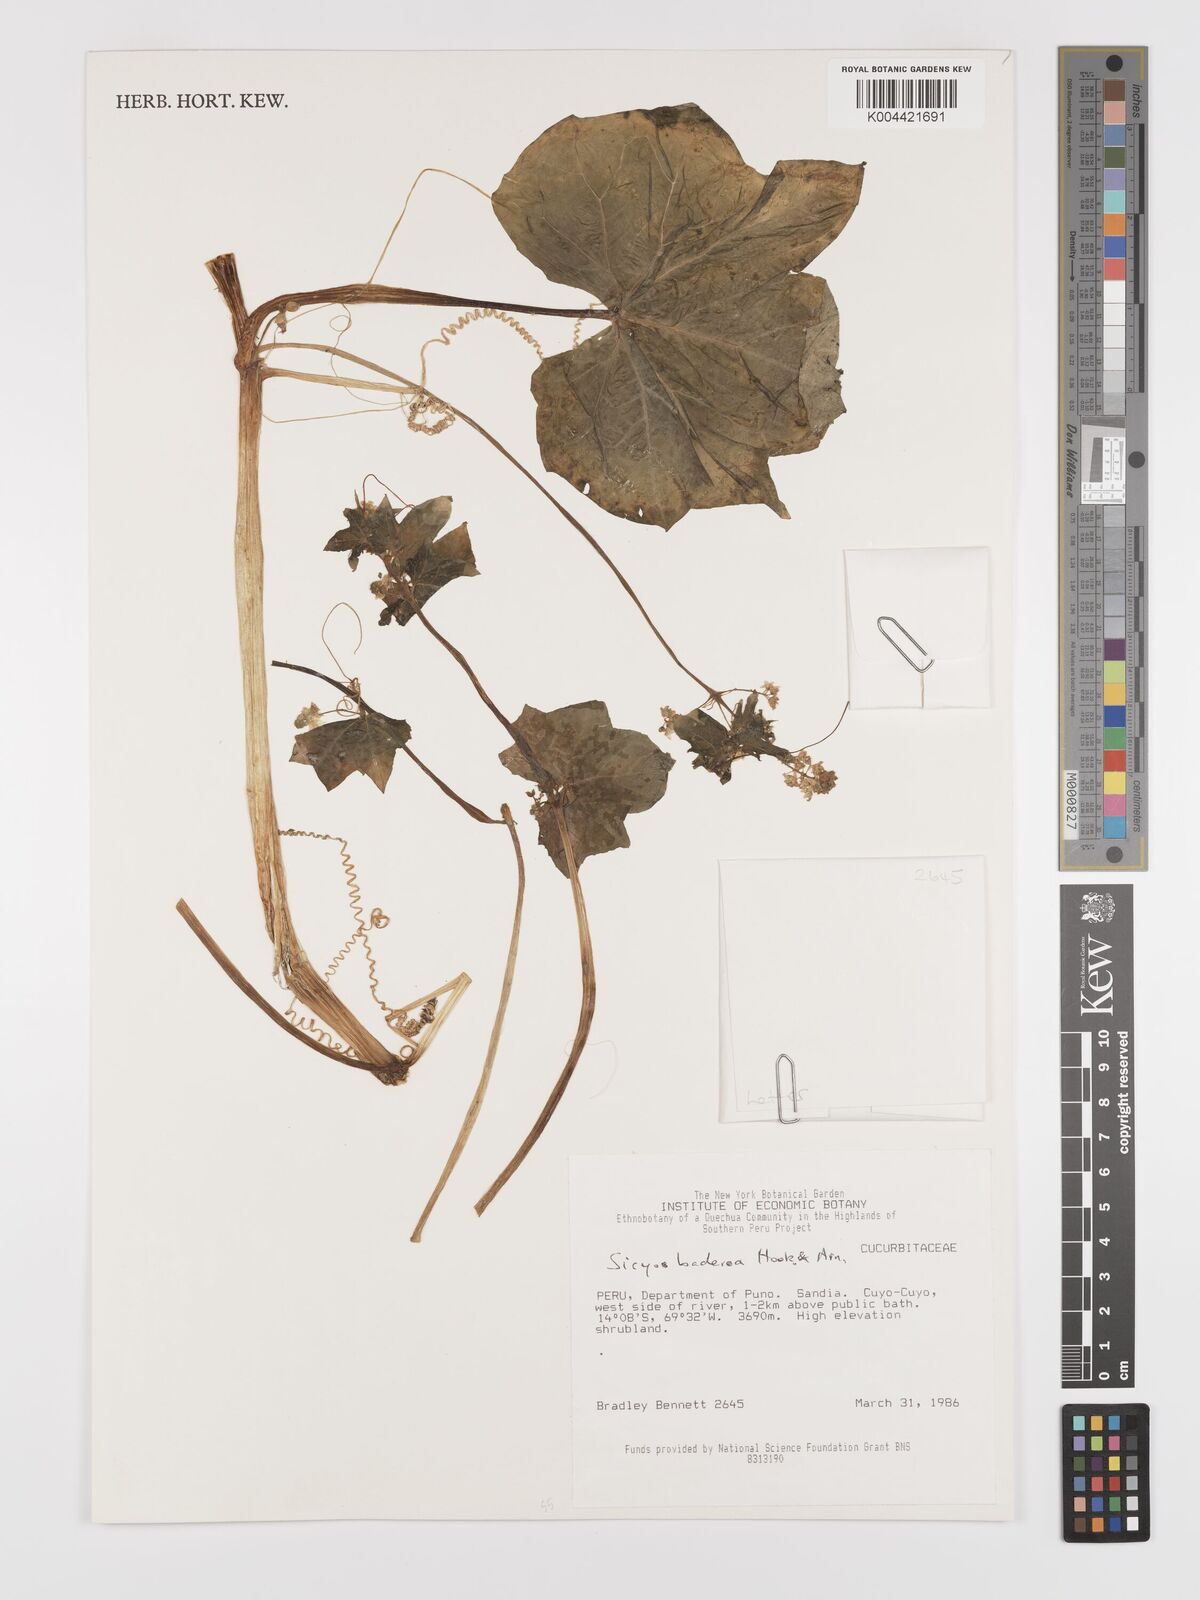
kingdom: Plantae
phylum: Tracheophyta
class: Magnoliopsida
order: Cucurbitales
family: Cucurbitaceae
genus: Sicyos
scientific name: Sicyos baderoa
